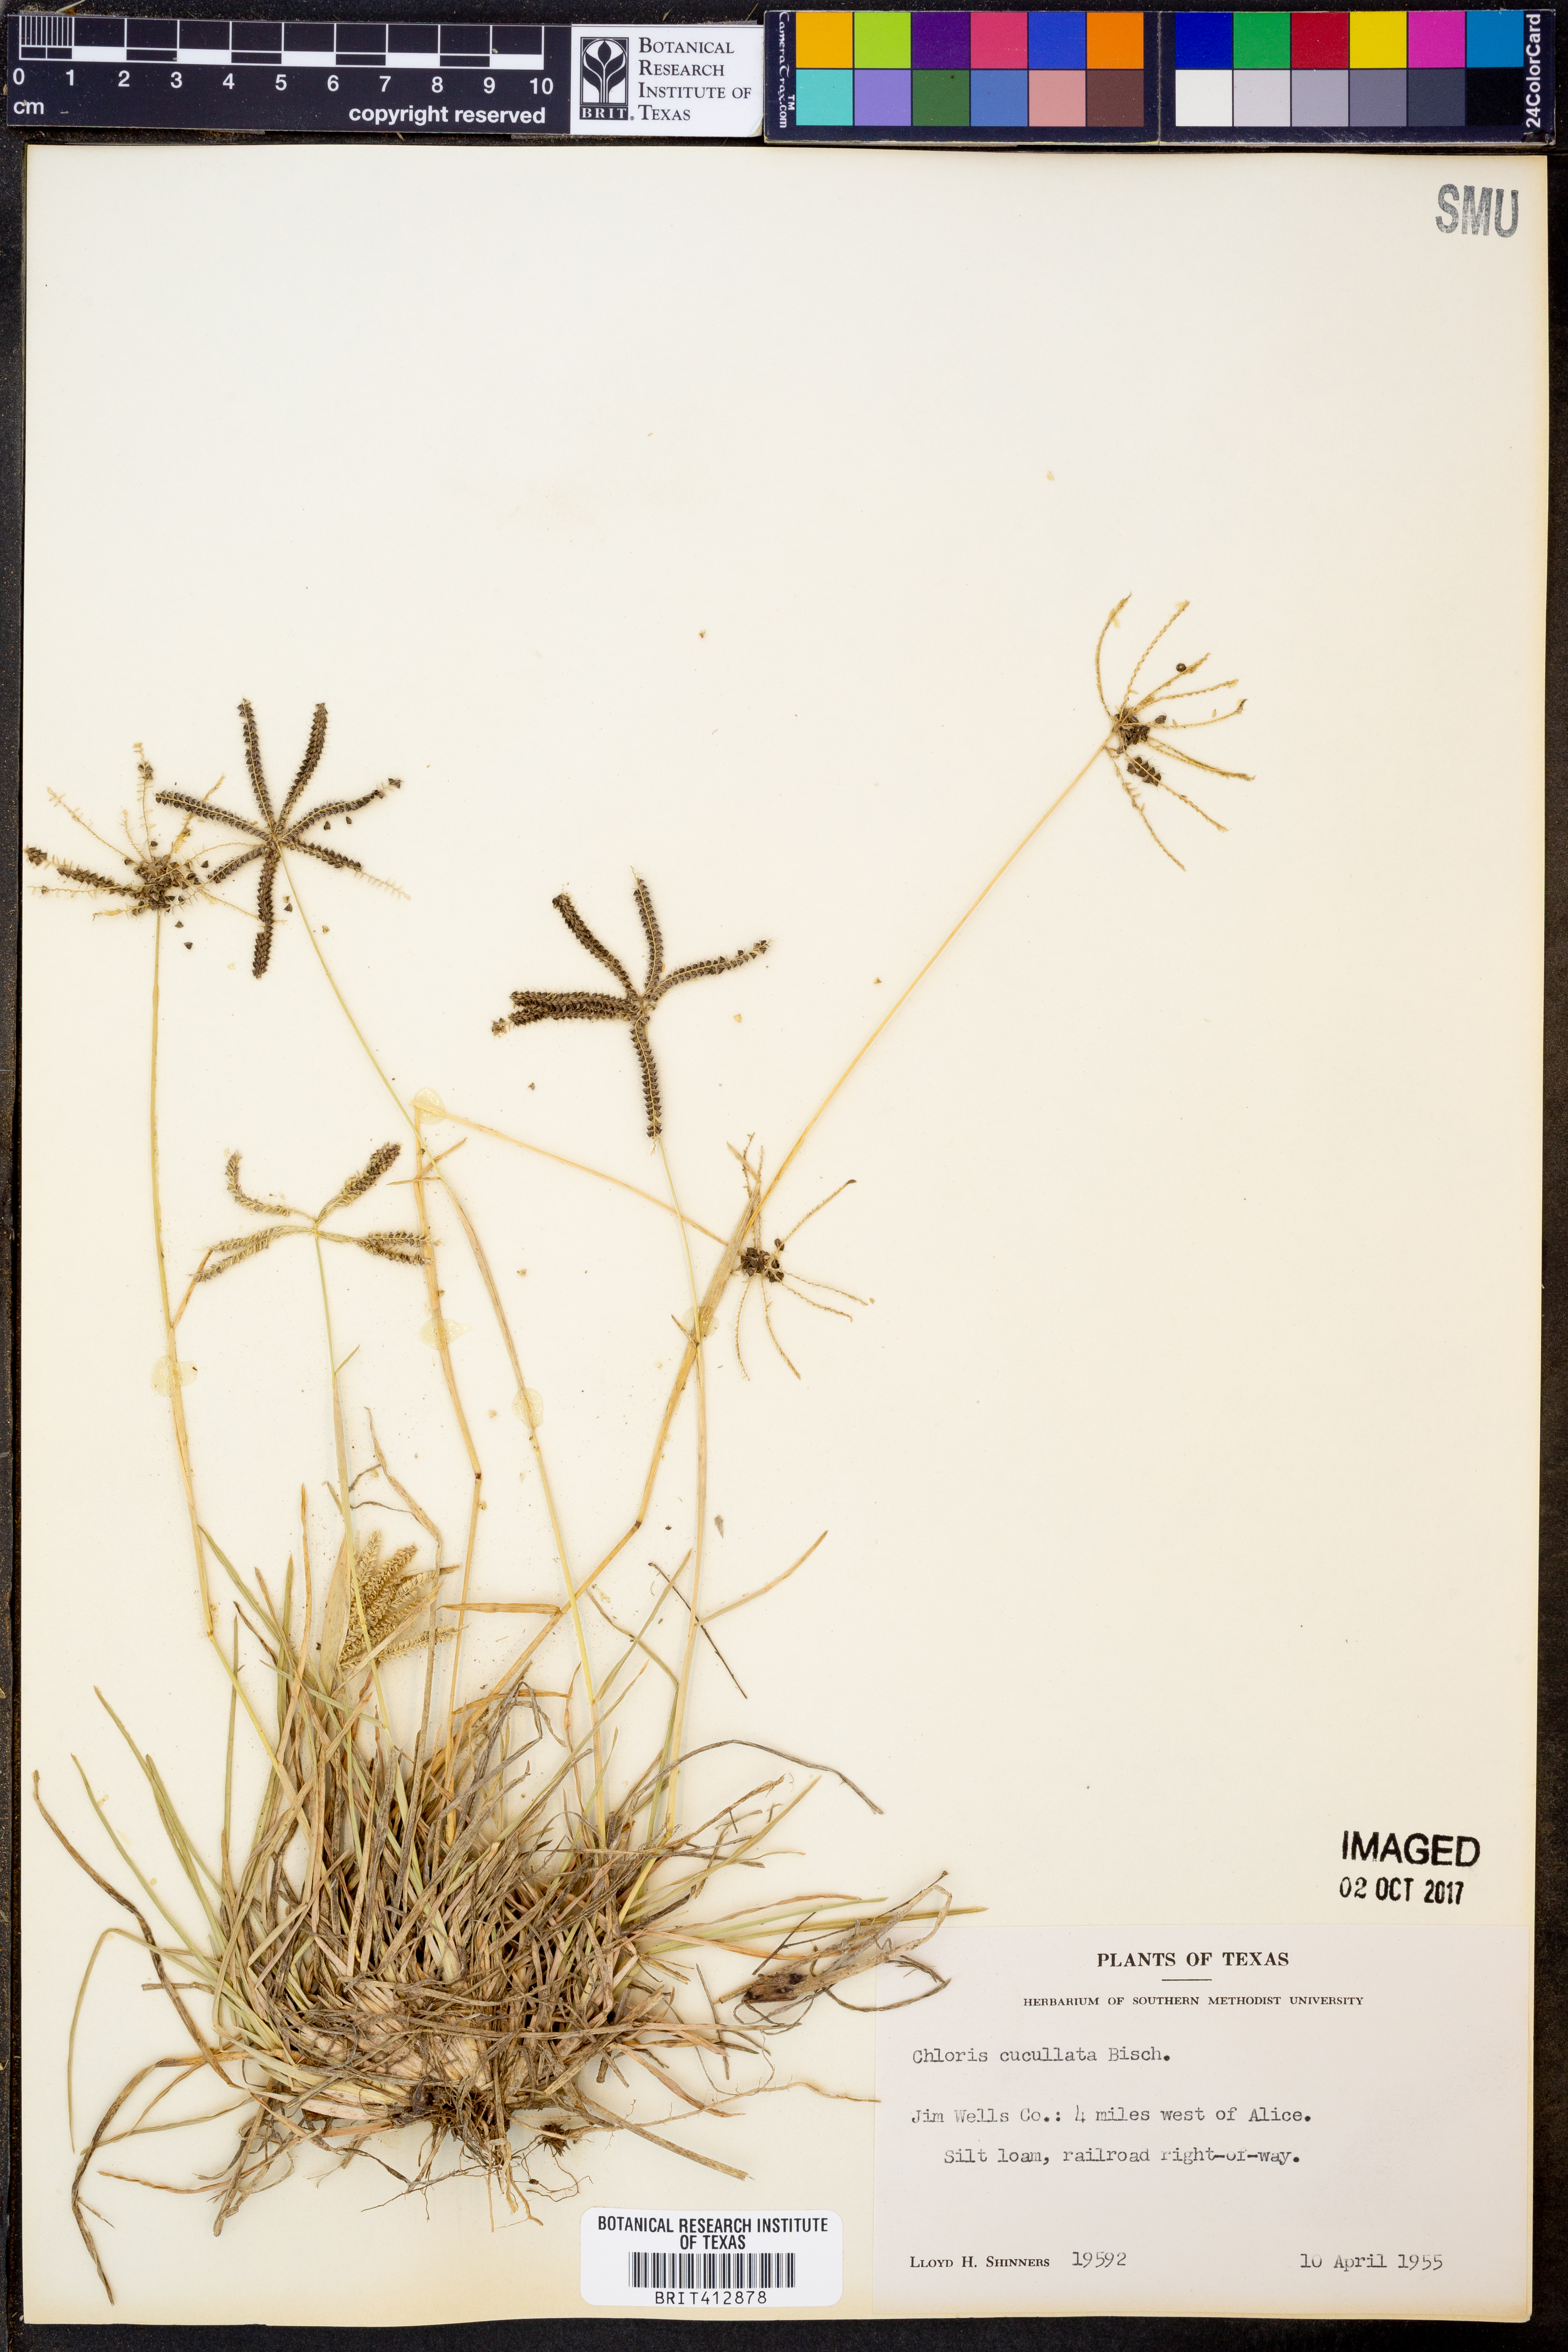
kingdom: Plantae
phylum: Tracheophyta
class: Liliopsida
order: Poales
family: Poaceae
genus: Chloris
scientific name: Chloris cucullata
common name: Hooded windmill grass
